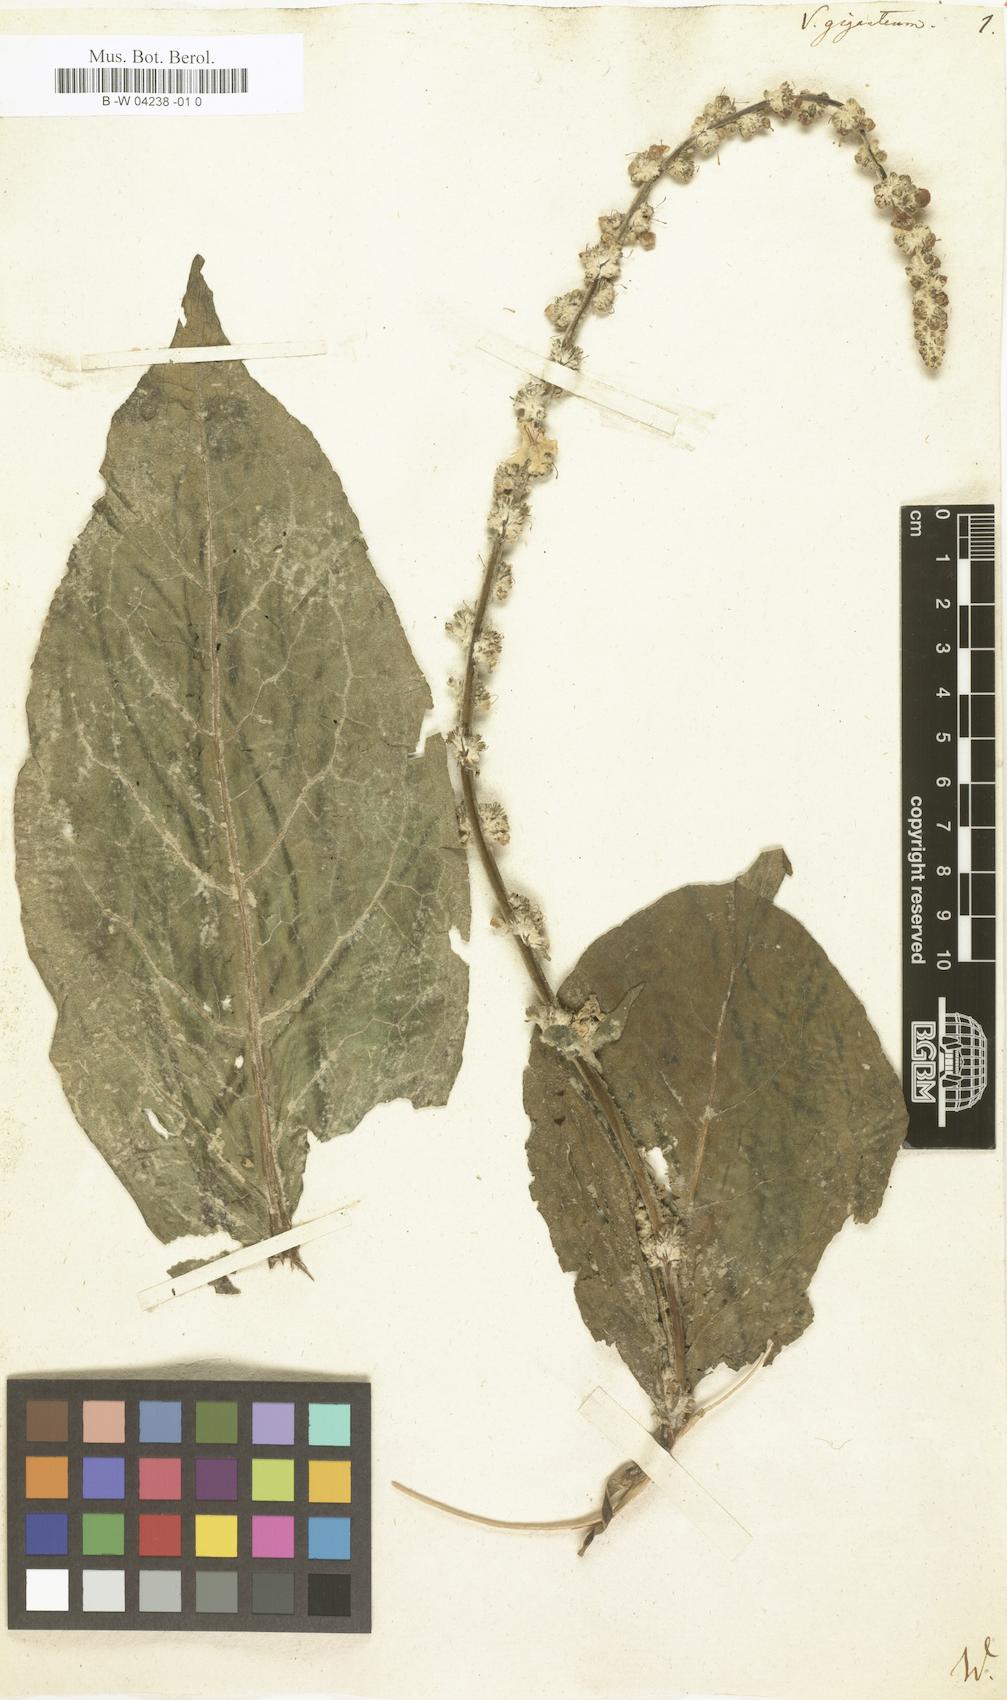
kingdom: Plantae
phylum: Tracheophyta
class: Magnoliopsida
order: Lamiales
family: Scrophulariaceae
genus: Verbascum
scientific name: Verbascum giganteum
